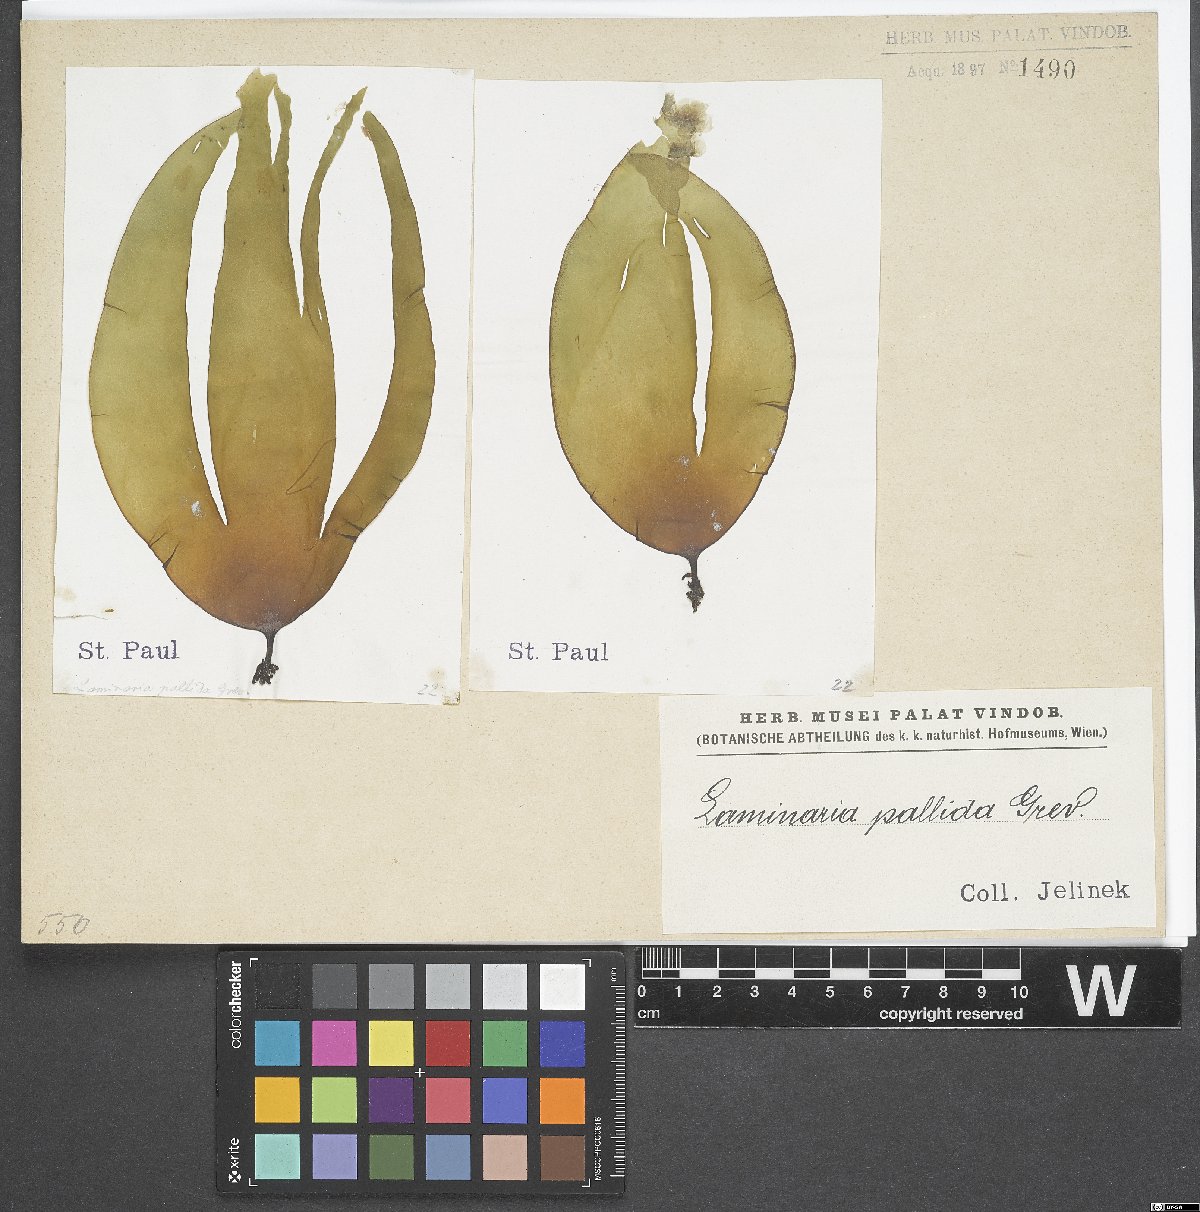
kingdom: Chromista
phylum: Ochrophyta
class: Phaeophyceae
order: Laminariales
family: Laminariaceae
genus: Laminaria
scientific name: Laminaria pallida
